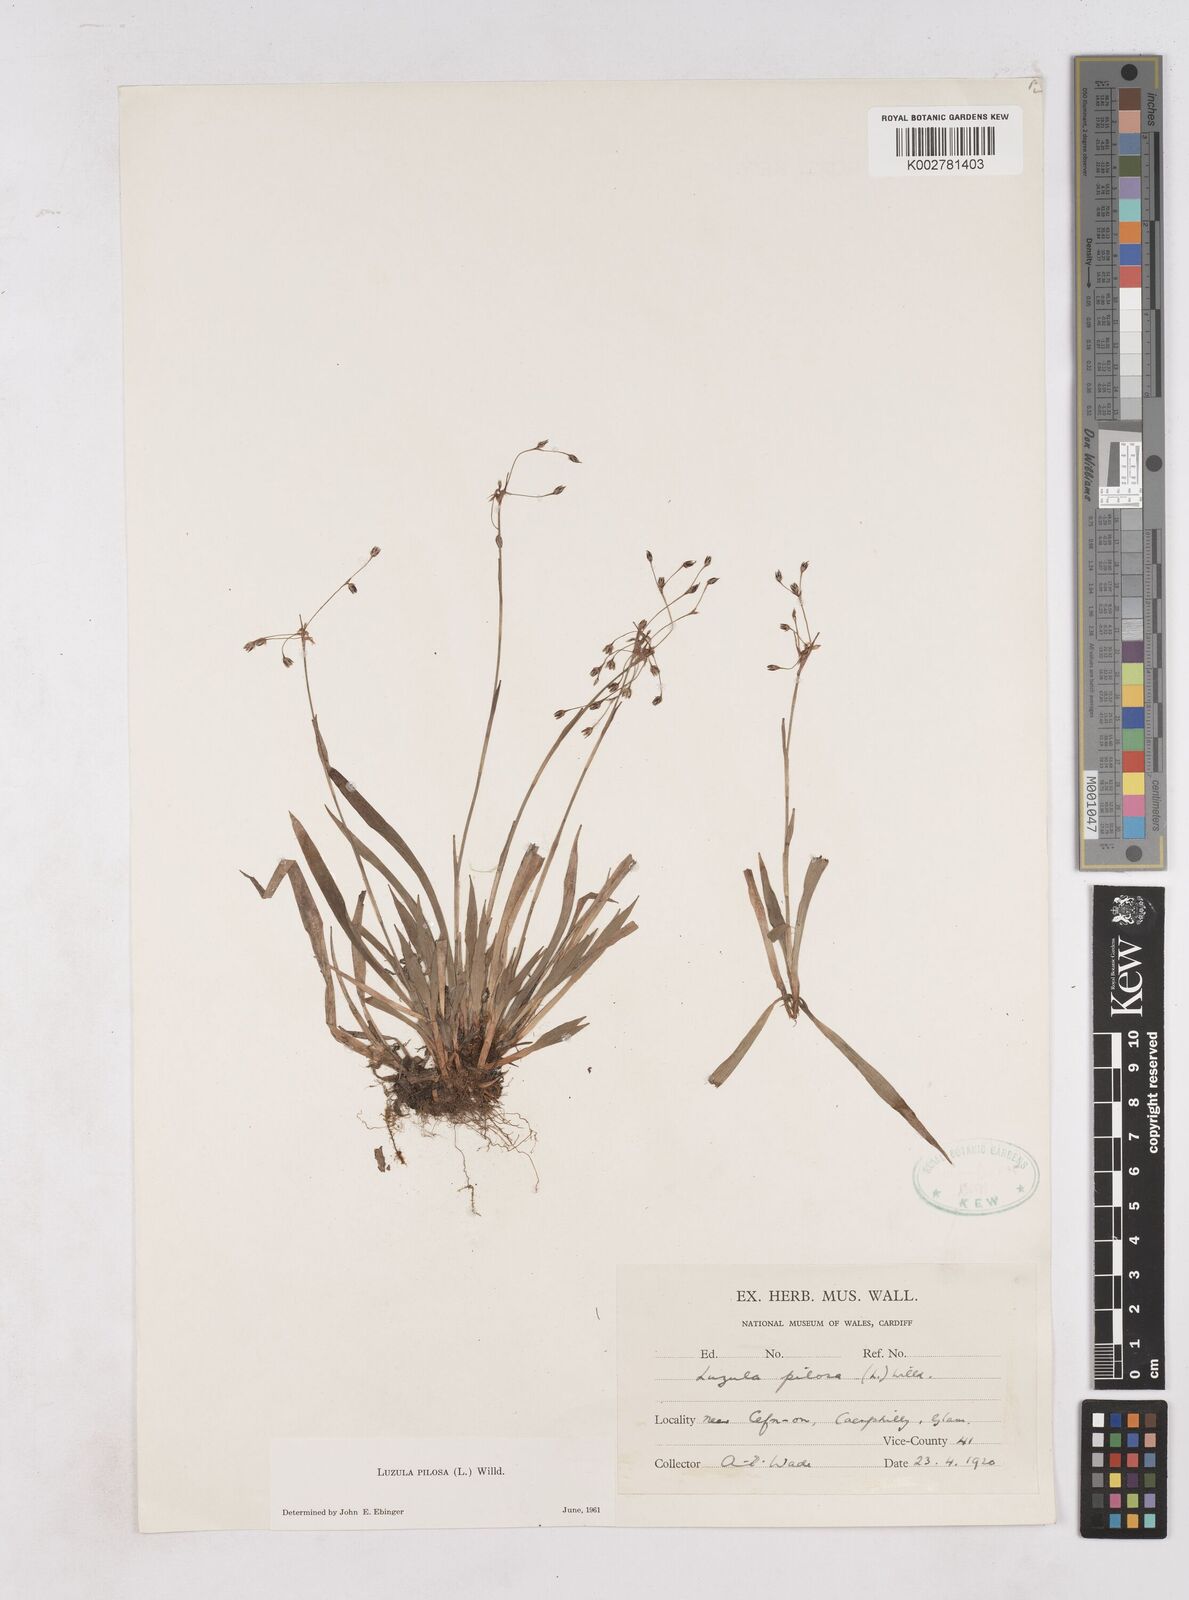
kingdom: Plantae
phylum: Tracheophyta
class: Liliopsida
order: Poales
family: Juncaceae
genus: Luzula
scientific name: Luzula pilosa
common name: Hairy wood-rush
